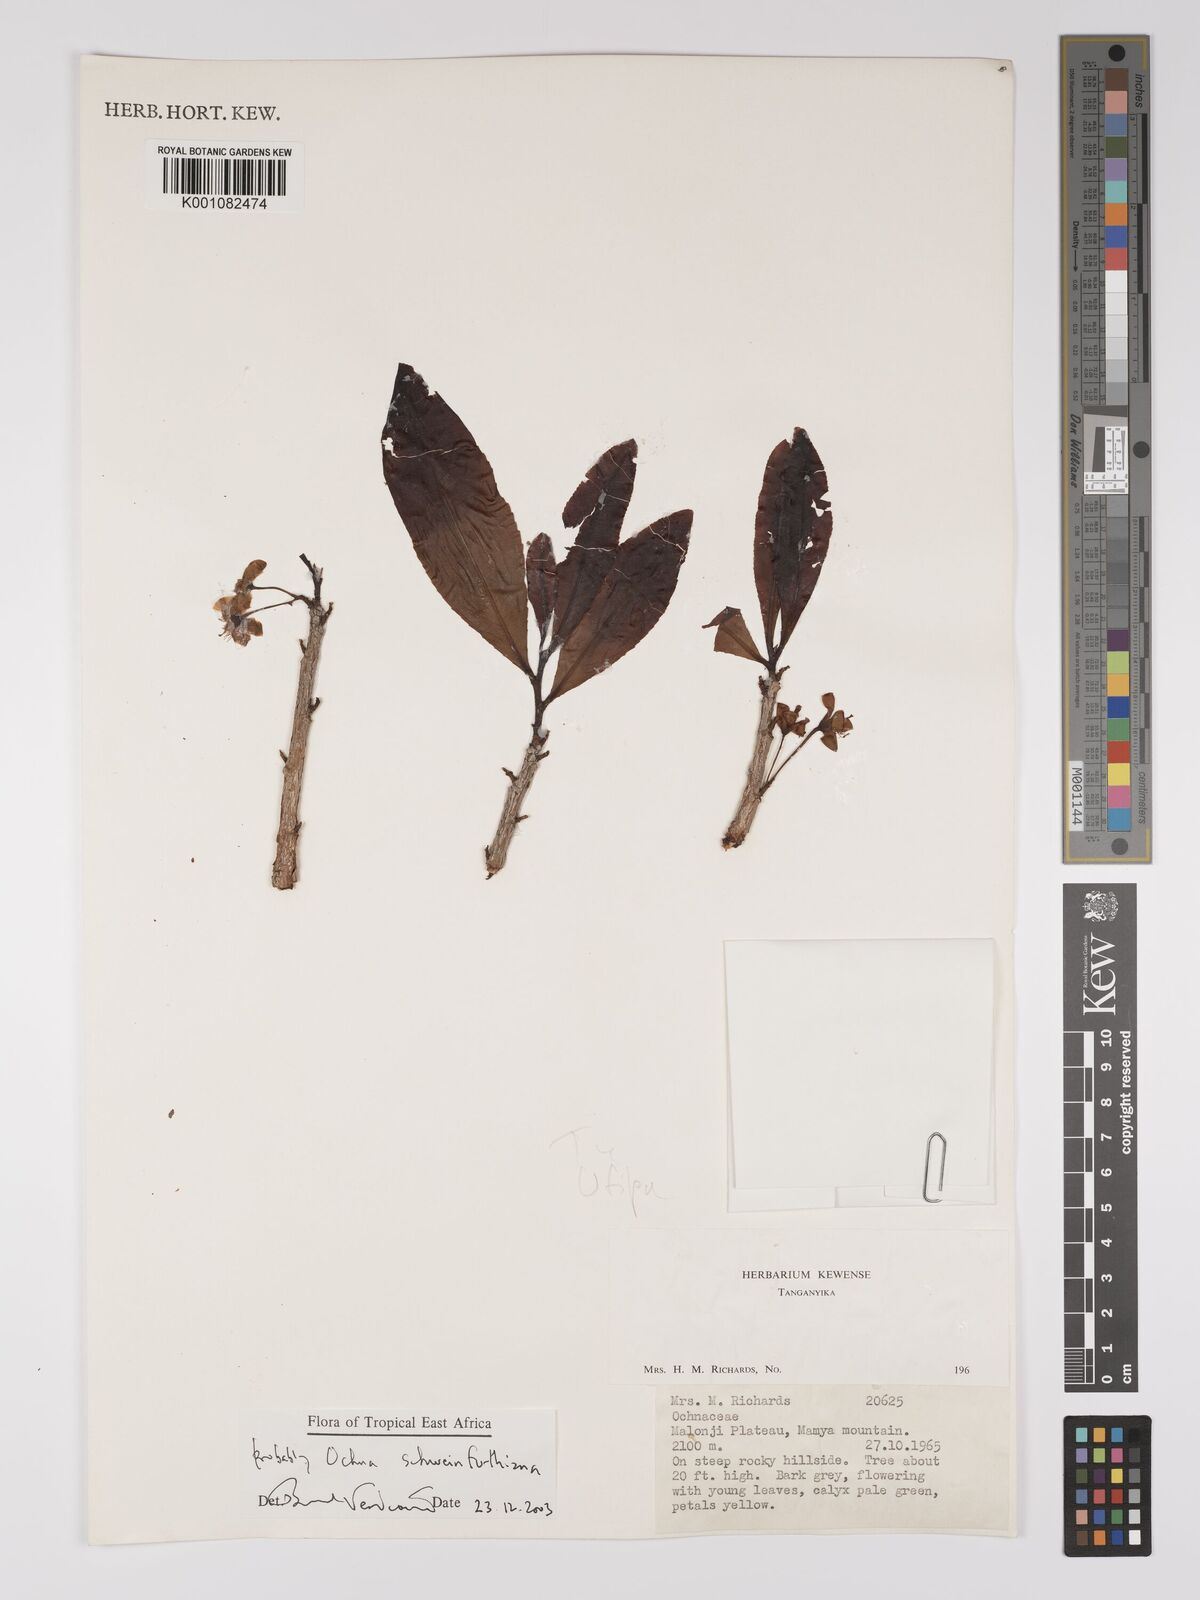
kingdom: Plantae
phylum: Tracheophyta
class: Magnoliopsida
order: Malpighiales
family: Ochnaceae
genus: Ochna
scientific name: Ochna schweinfurthiana
